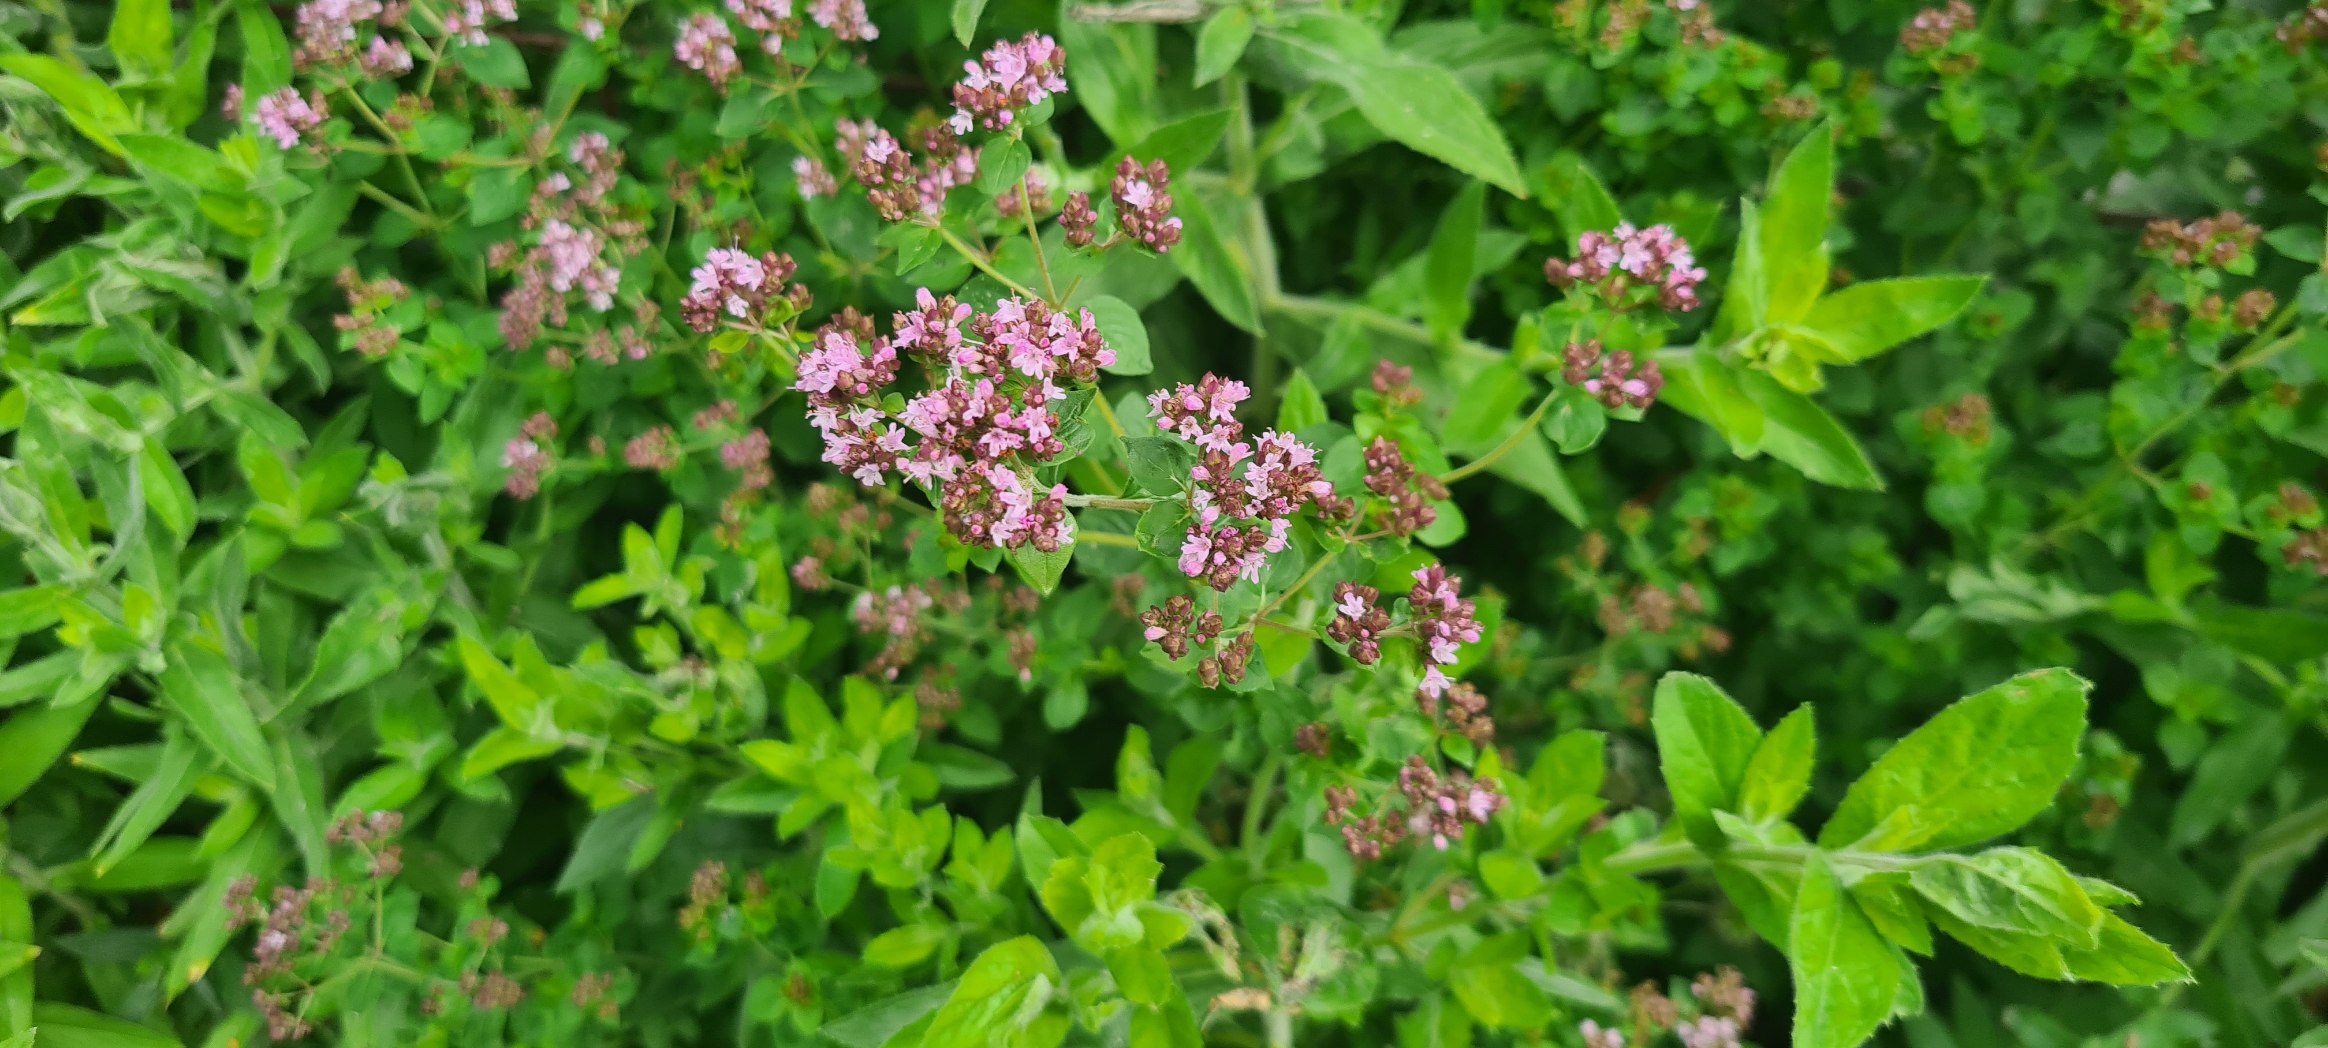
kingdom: Plantae
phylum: Tracheophyta
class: Magnoliopsida
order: Lamiales
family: Lamiaceae
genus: Origanum
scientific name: Origanum vulgare
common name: Merian
